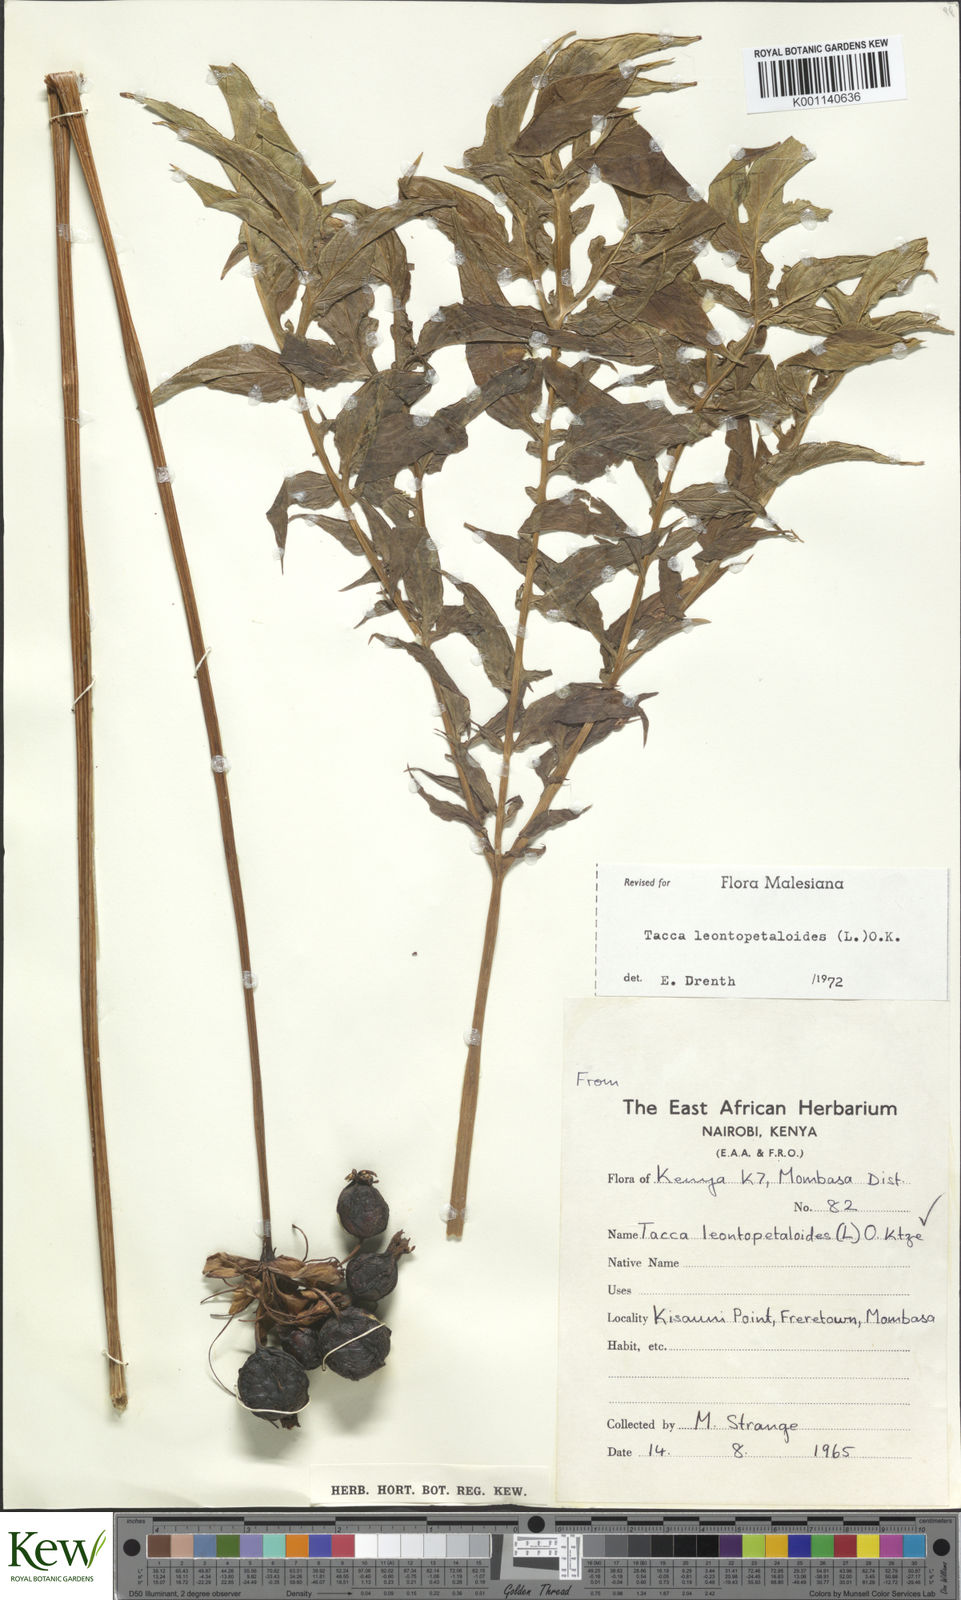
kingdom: Plantae
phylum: Tracheophyta
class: Liliopsida
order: Dioscoreales
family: Dioscoreaceae
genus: Tacca
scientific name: Tacca leontopetaloides
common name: Arrowroot
